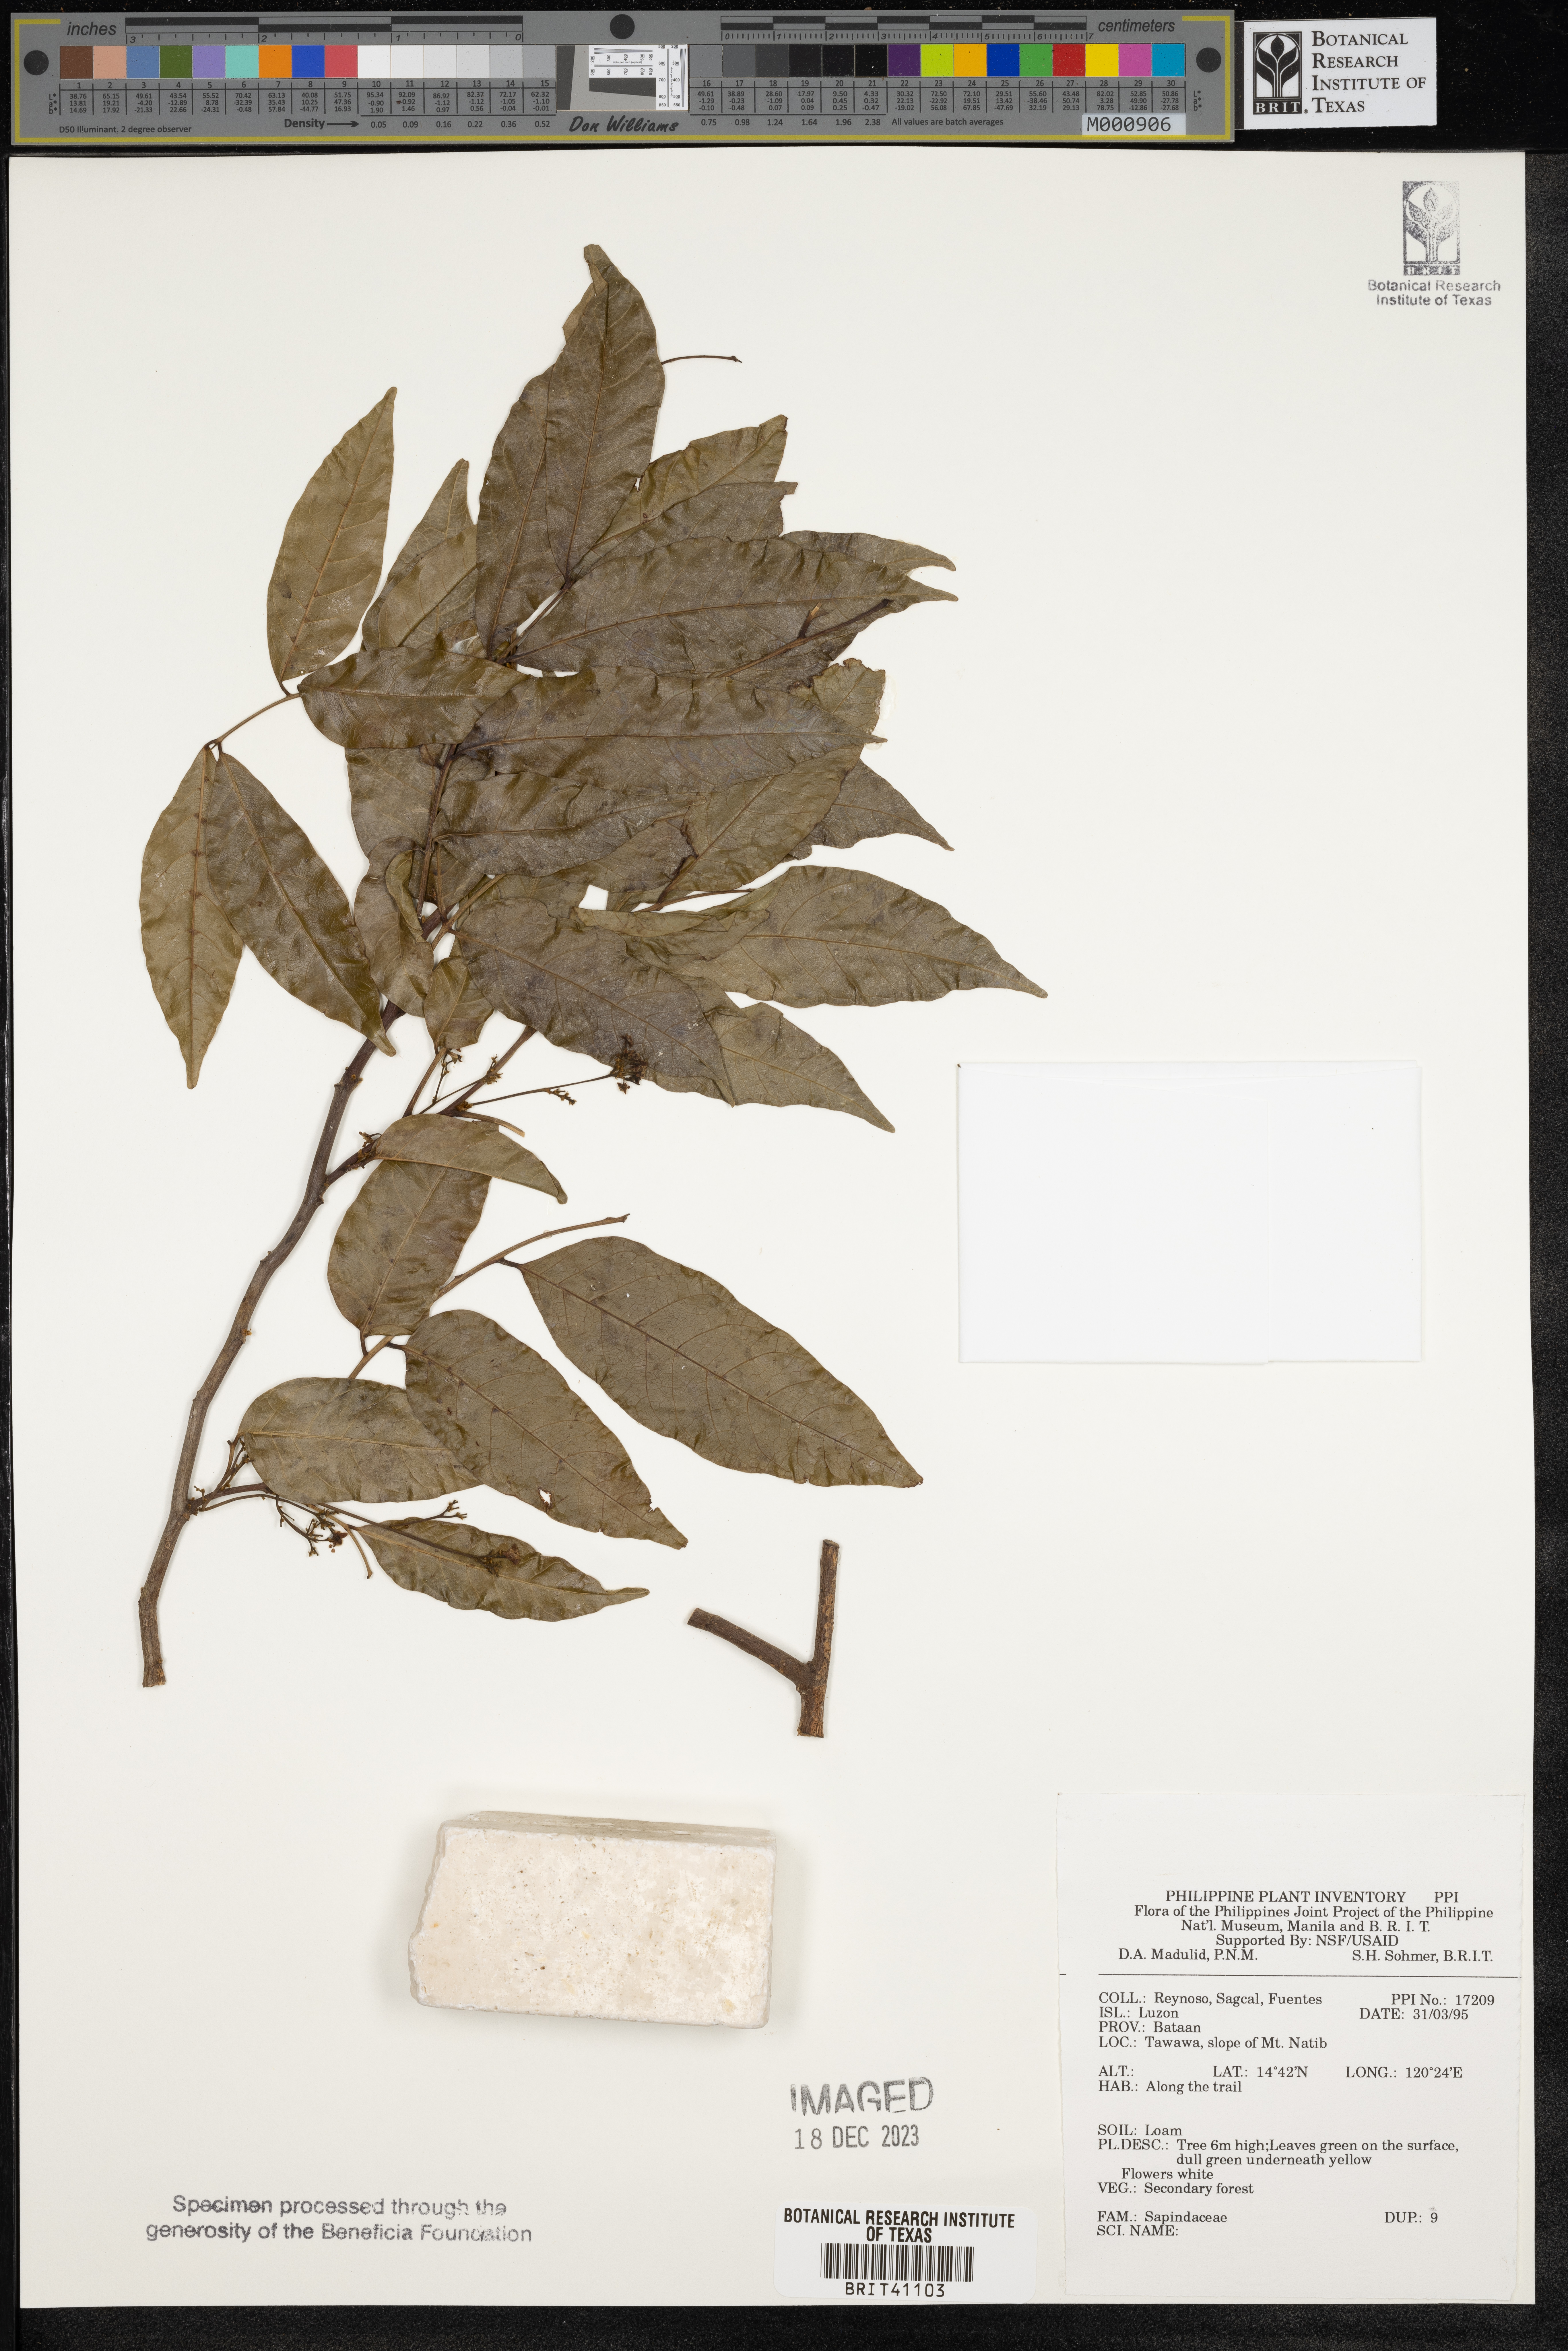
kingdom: Plantae
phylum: Tracheophyta
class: Magnoliopsida
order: Sapindales
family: Sapindaceae
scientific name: Sapindaceae
